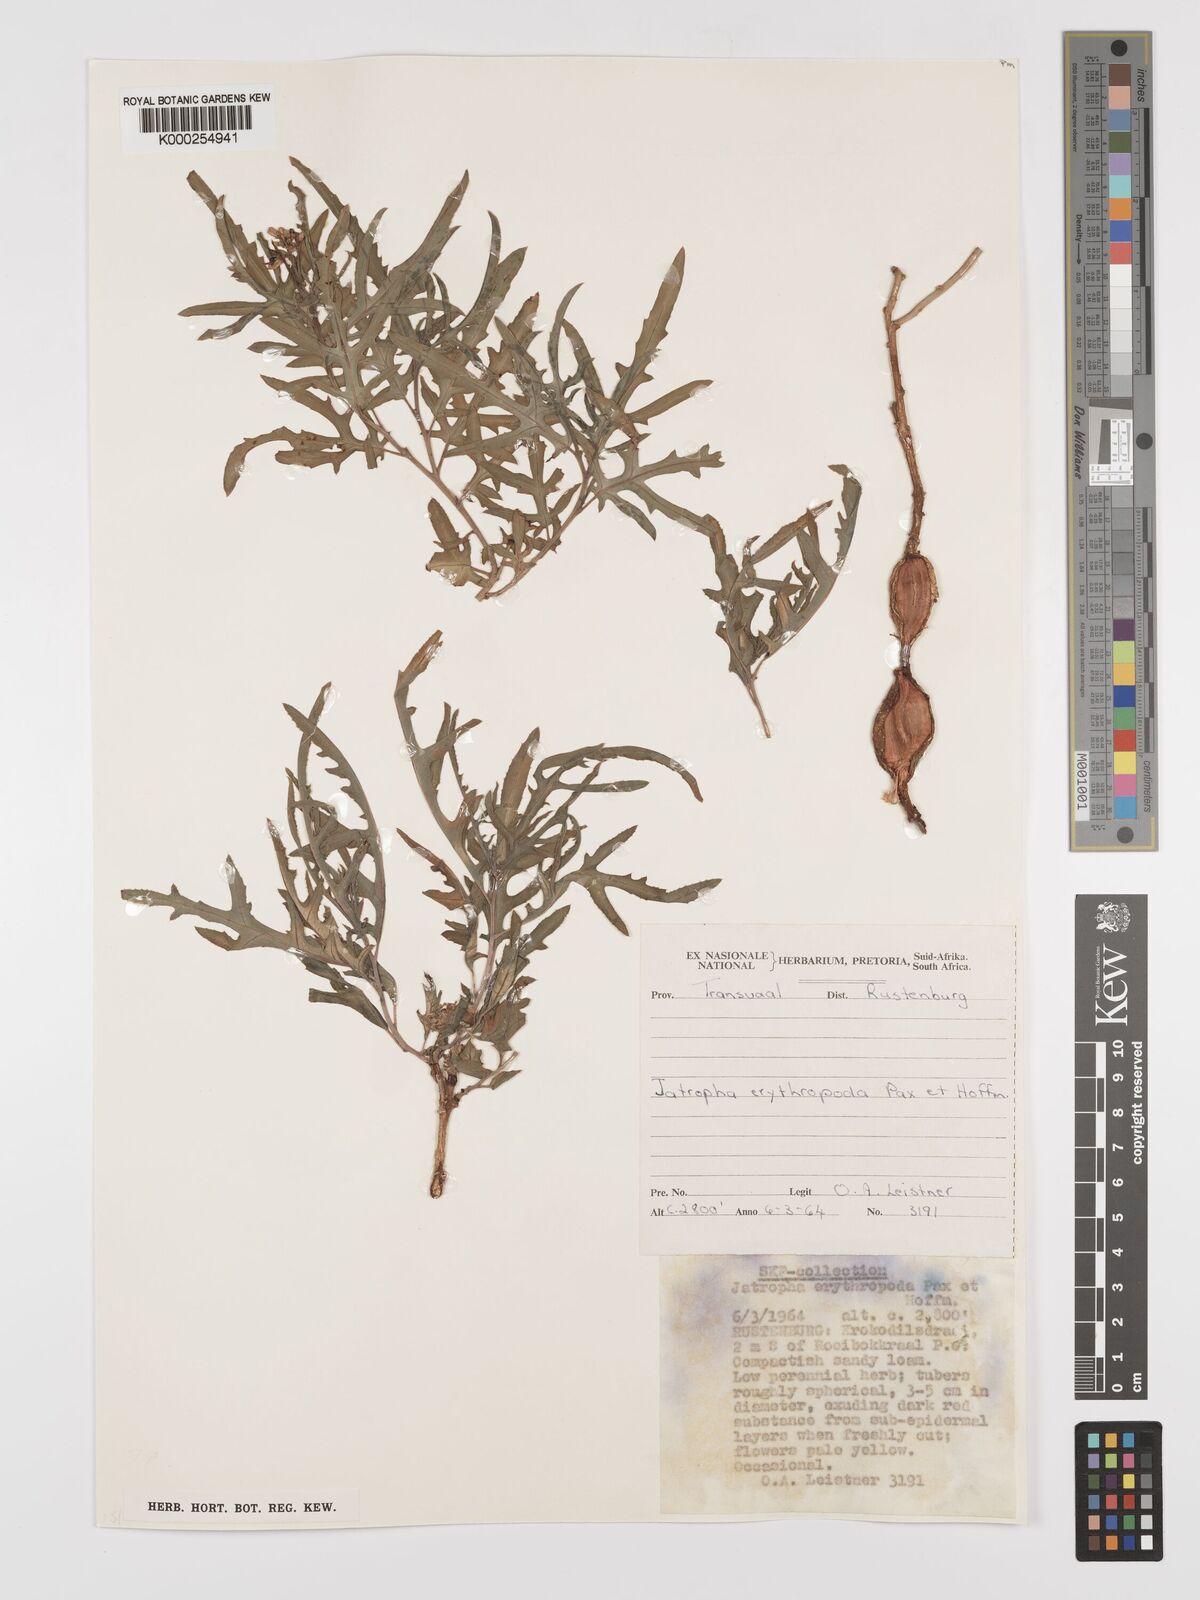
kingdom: Plantae
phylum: Tracheophyta
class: Magnoliopsida
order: Malpighiales
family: Euphorbiaceae
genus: Jatropha
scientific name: Jatropha erythropoda
